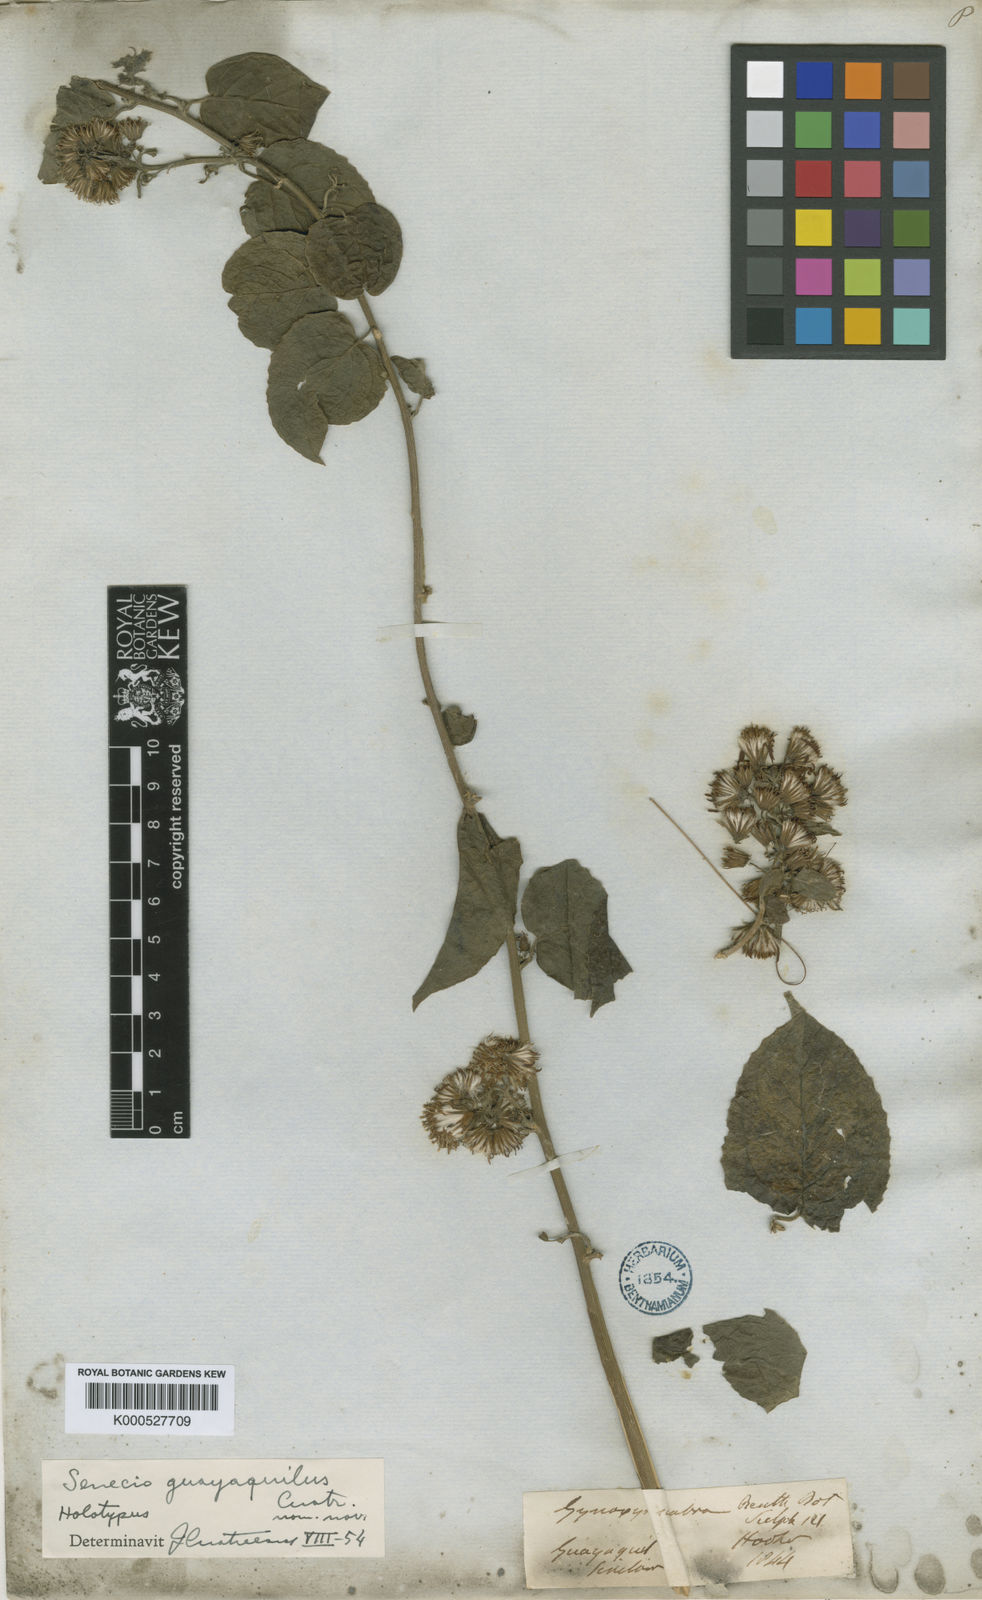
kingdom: Plantae
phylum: Tracheophyta
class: Magnoliopsida
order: Asterales
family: Asteraceae
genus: Pseudogynoxys
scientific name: Pseudogynoxys scabra
